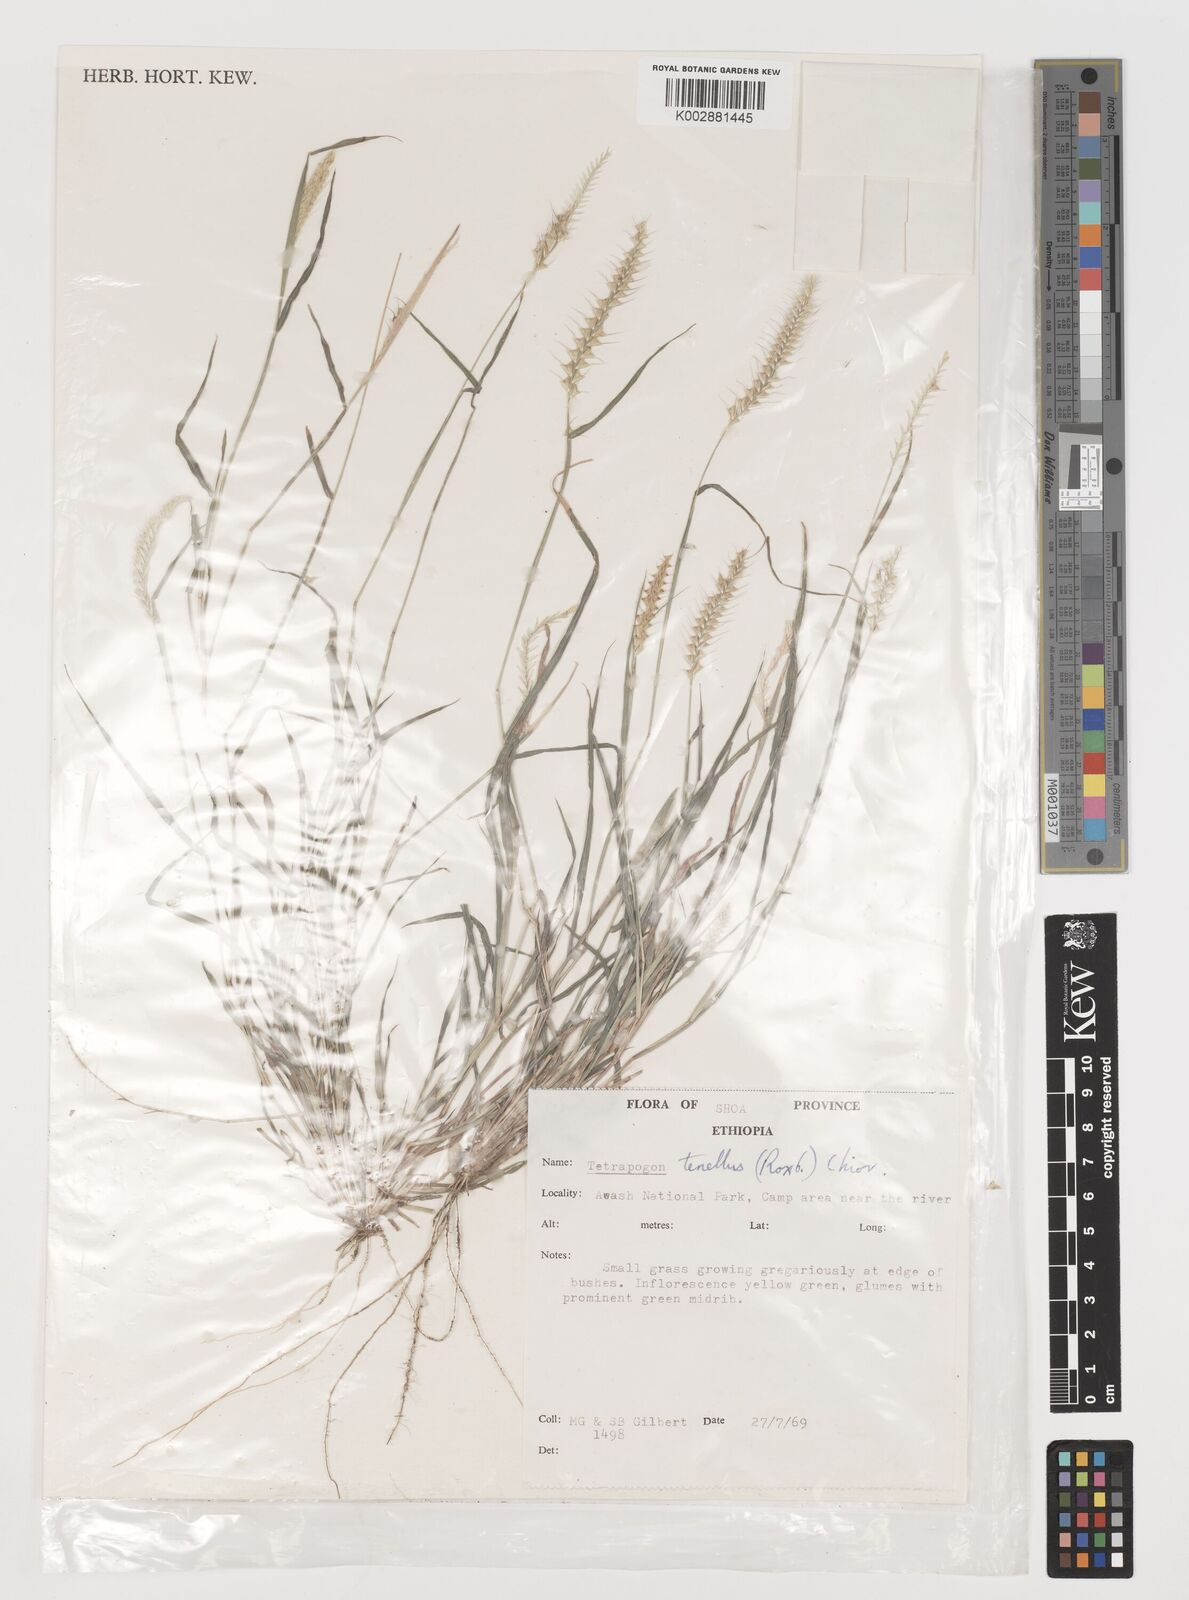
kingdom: Plantae
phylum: Tracheophyta
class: Liliopsida
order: Poales
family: Poaceae
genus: Tetrapogon
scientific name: Tetrapogon tenellus
